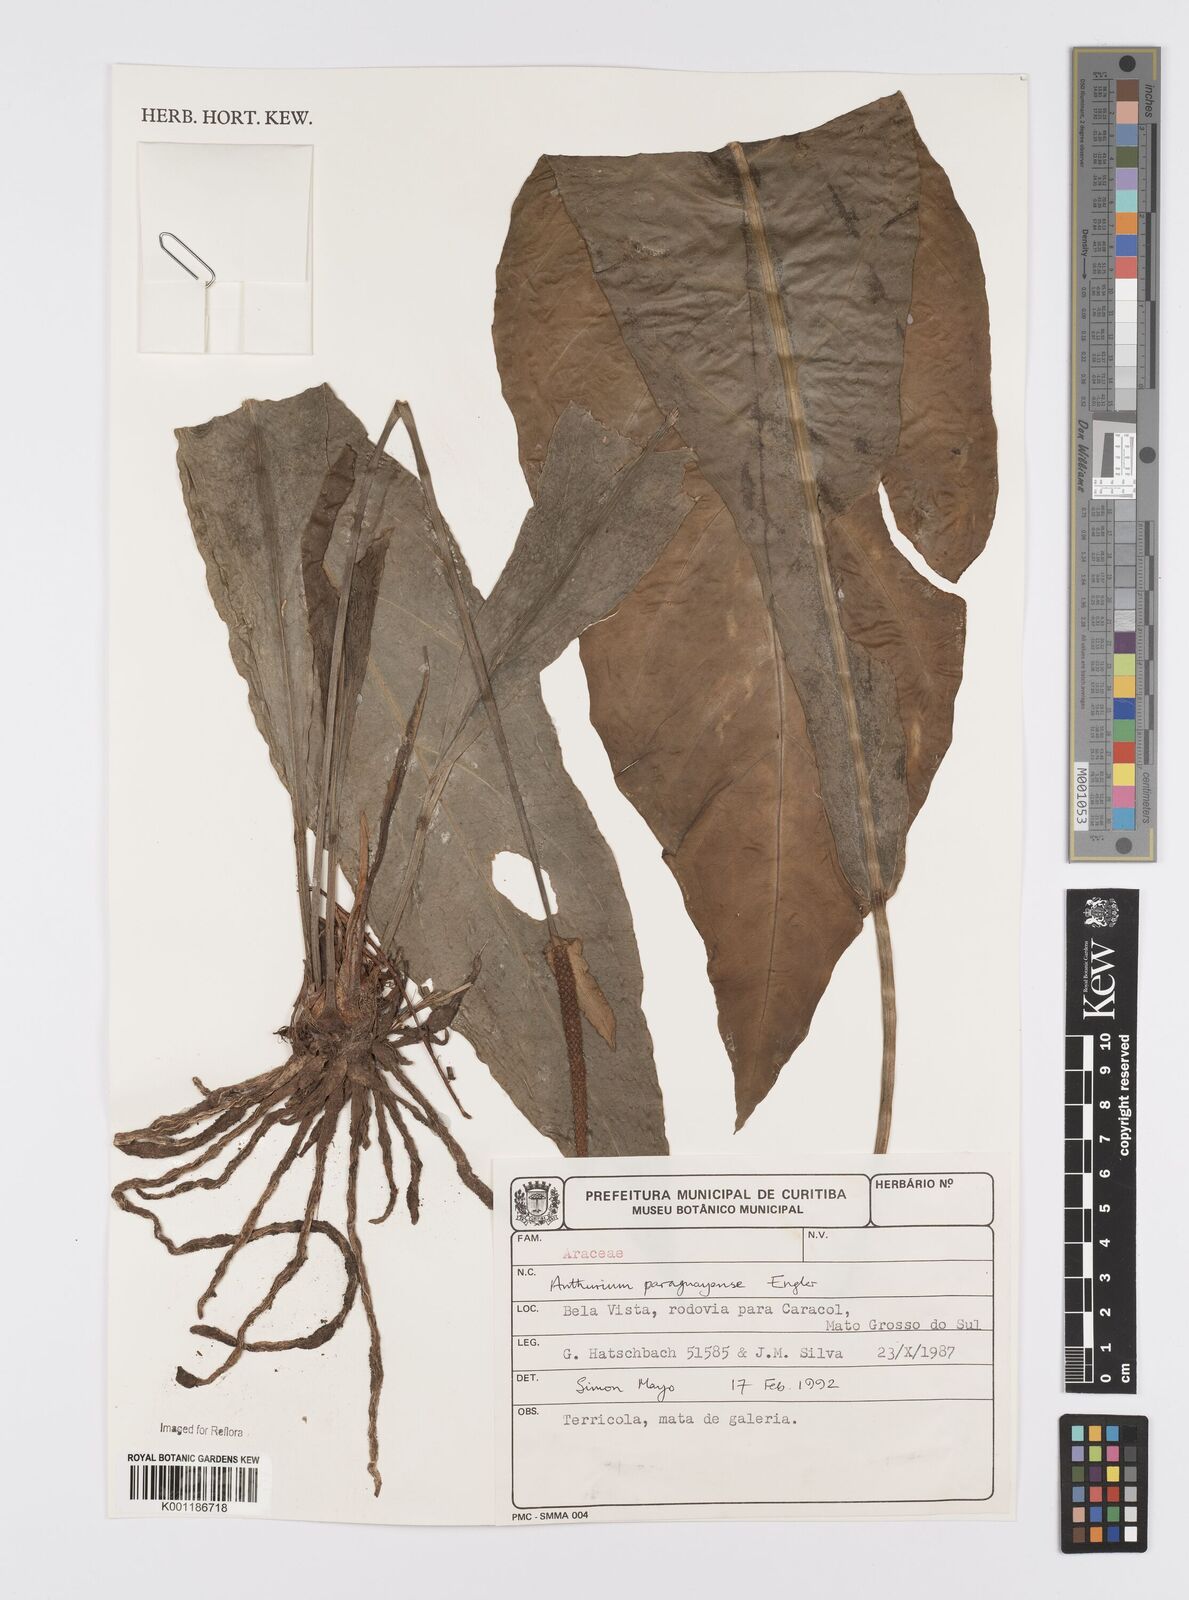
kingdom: Plantae
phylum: Tracheophyta
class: Liliopsida
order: Alismatales
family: Araceae
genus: Anthurium
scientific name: Anthurium paraguayense
